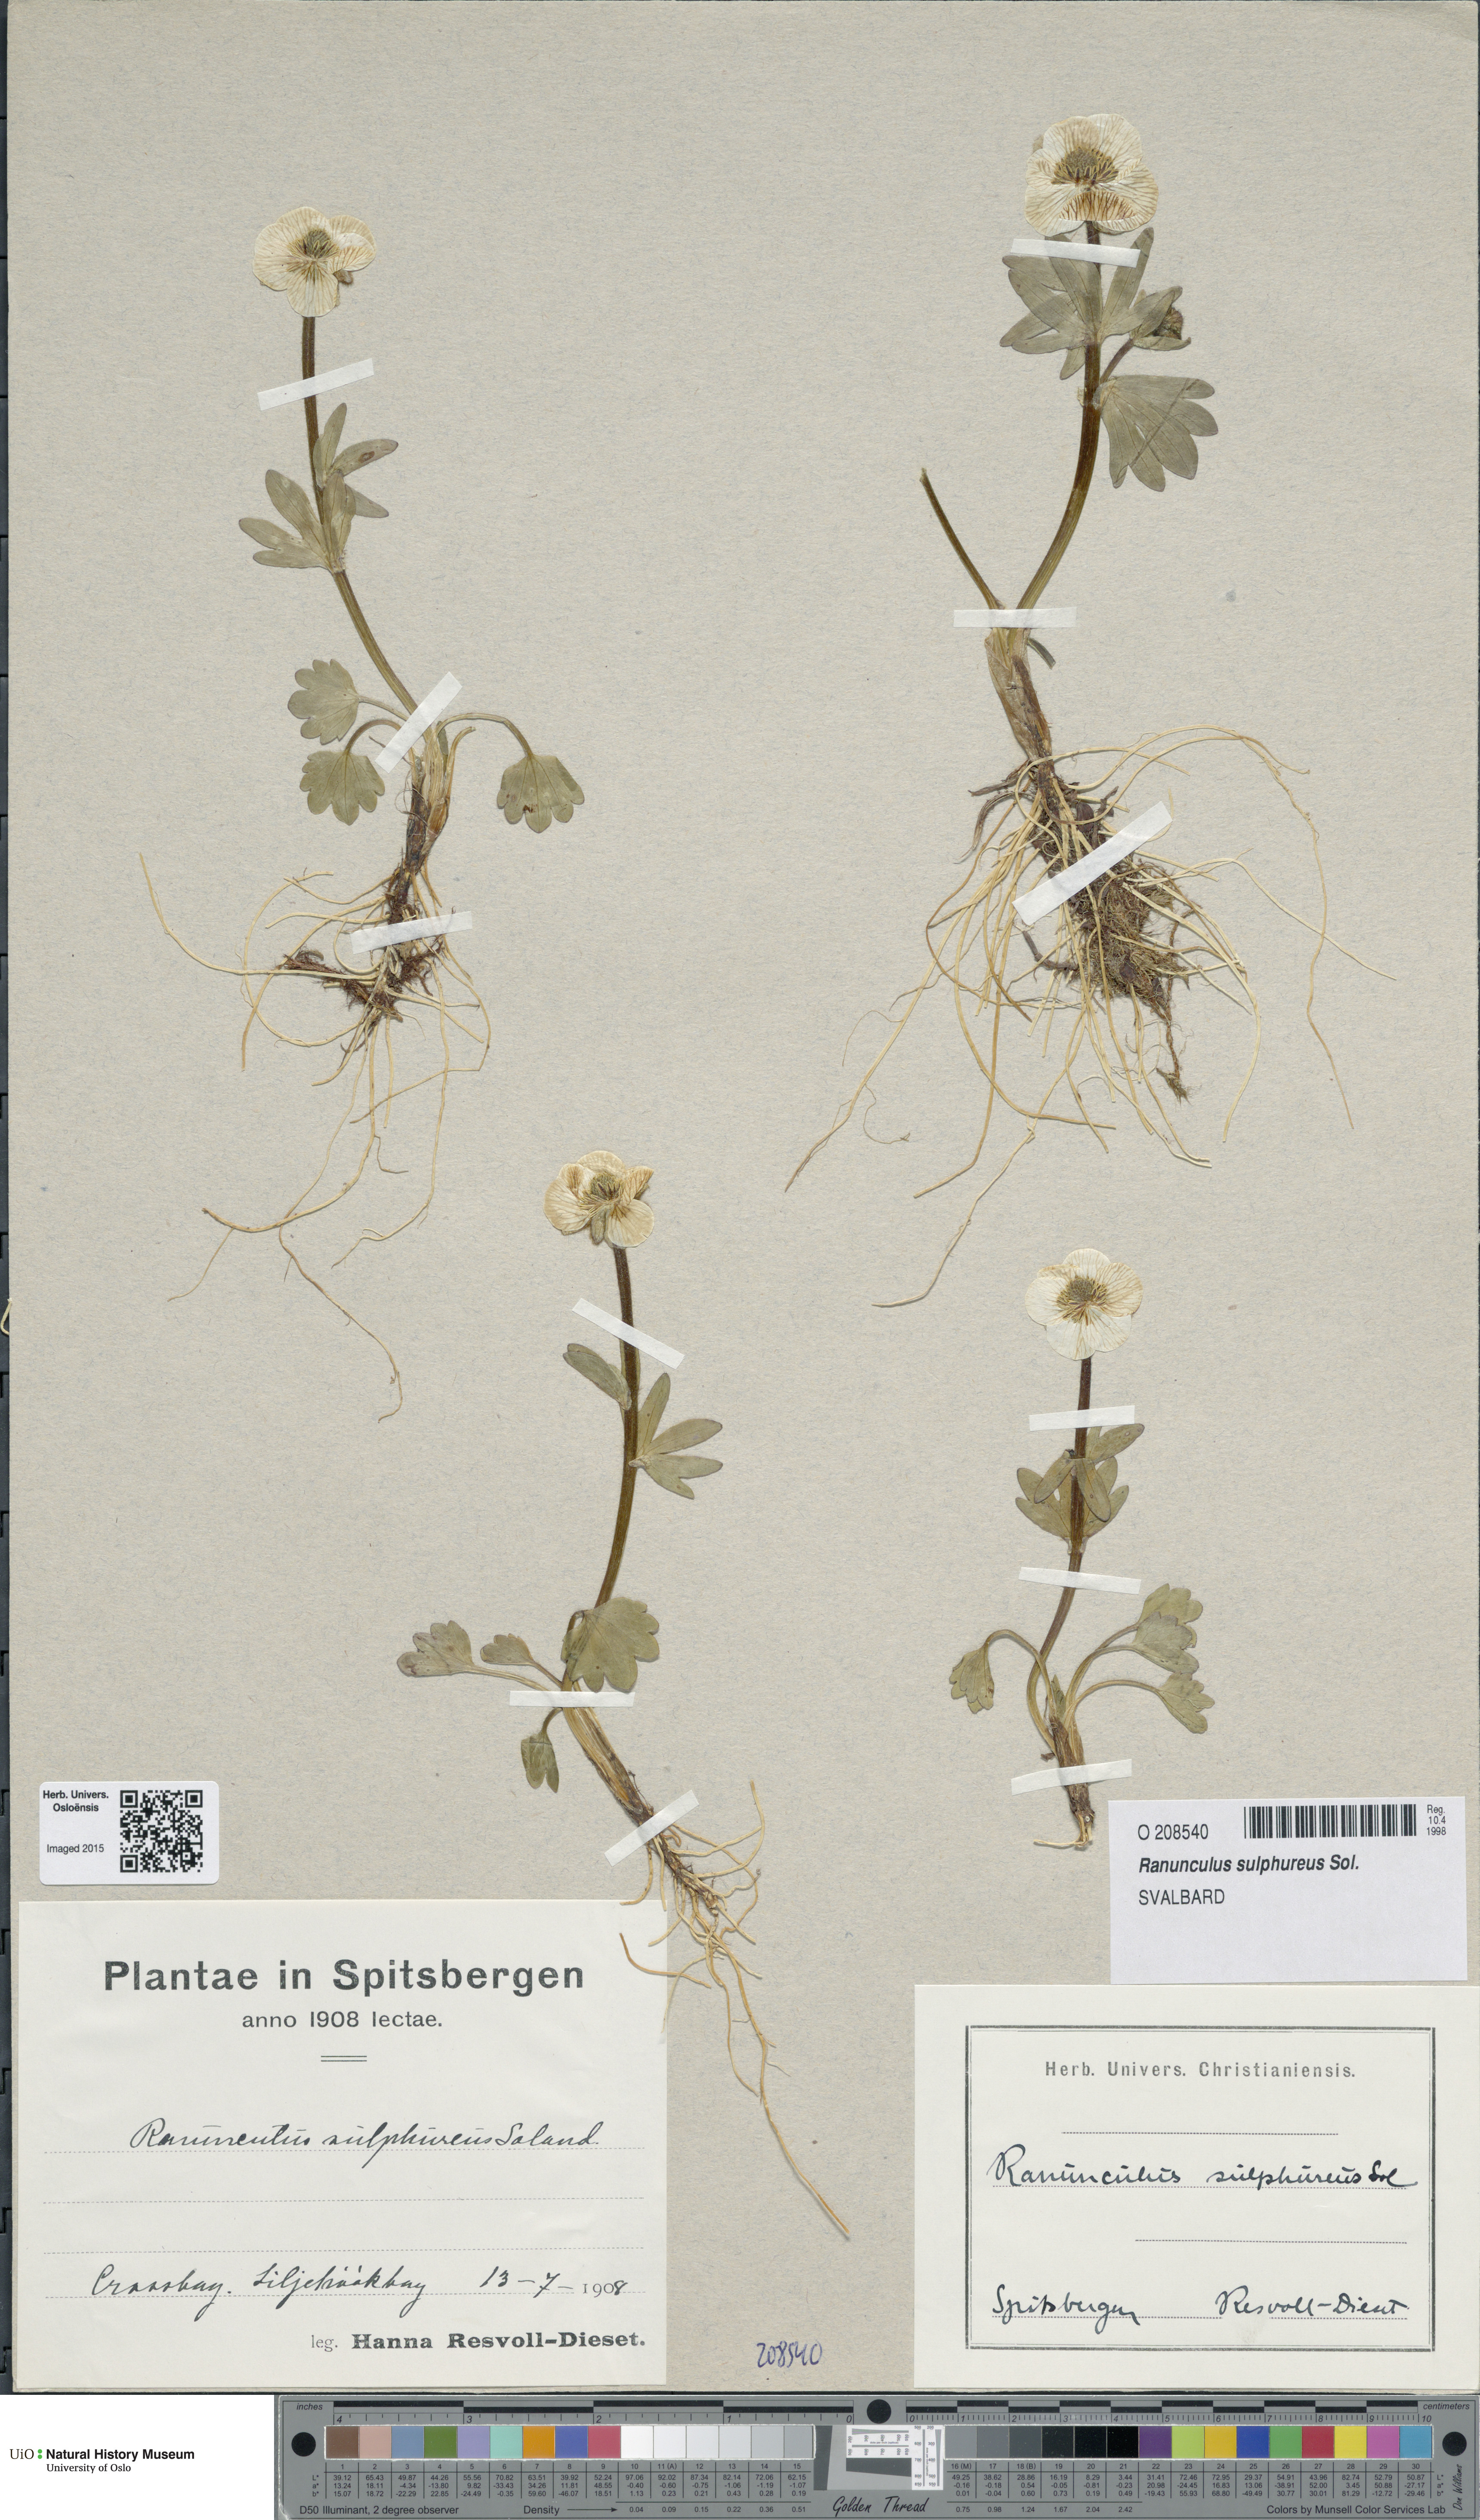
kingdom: Plantae
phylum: Tracheophyta
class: Magnoliopsida
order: Ranunculales
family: Ranunculaceae
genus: Ranunculus
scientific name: Ranunculus sulphureus
